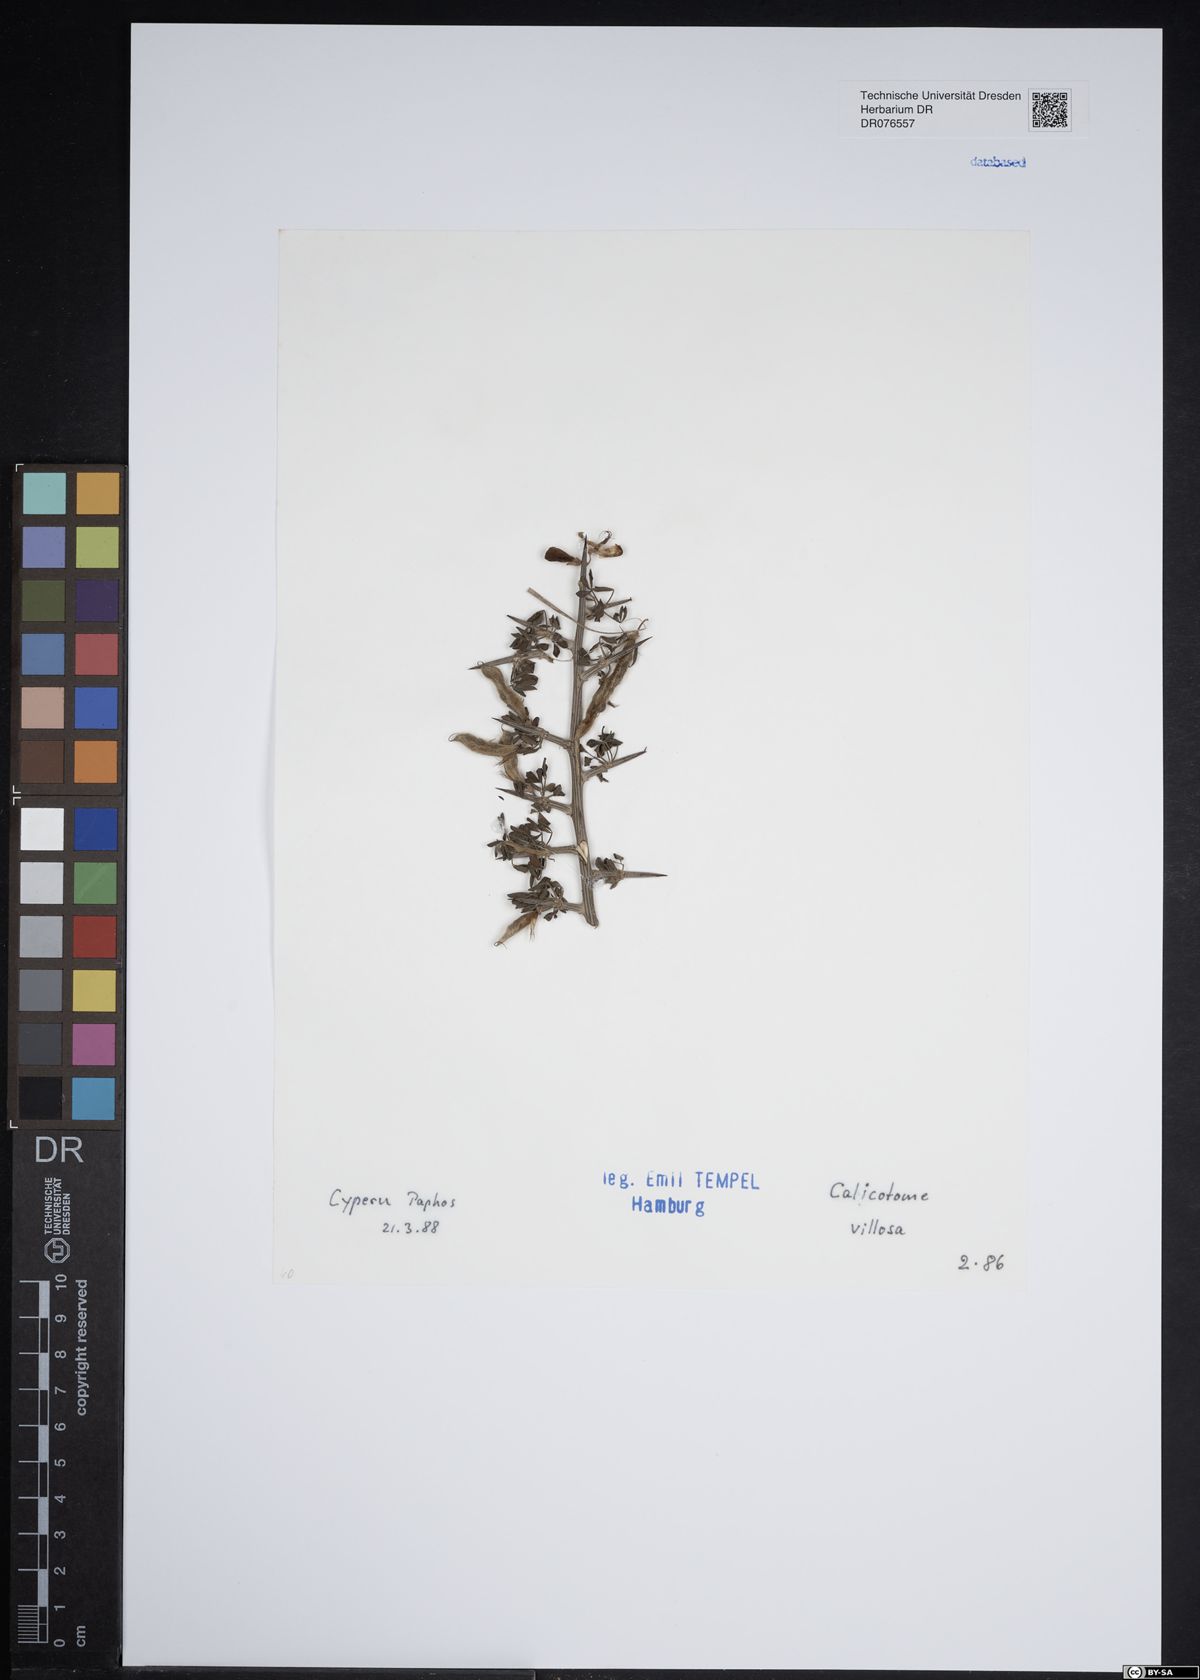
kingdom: Plantae
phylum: Tracheophyta
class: Magnoliopsida
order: Fabales
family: Fabaceae
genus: Calicotome
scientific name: Calicotome villosa
